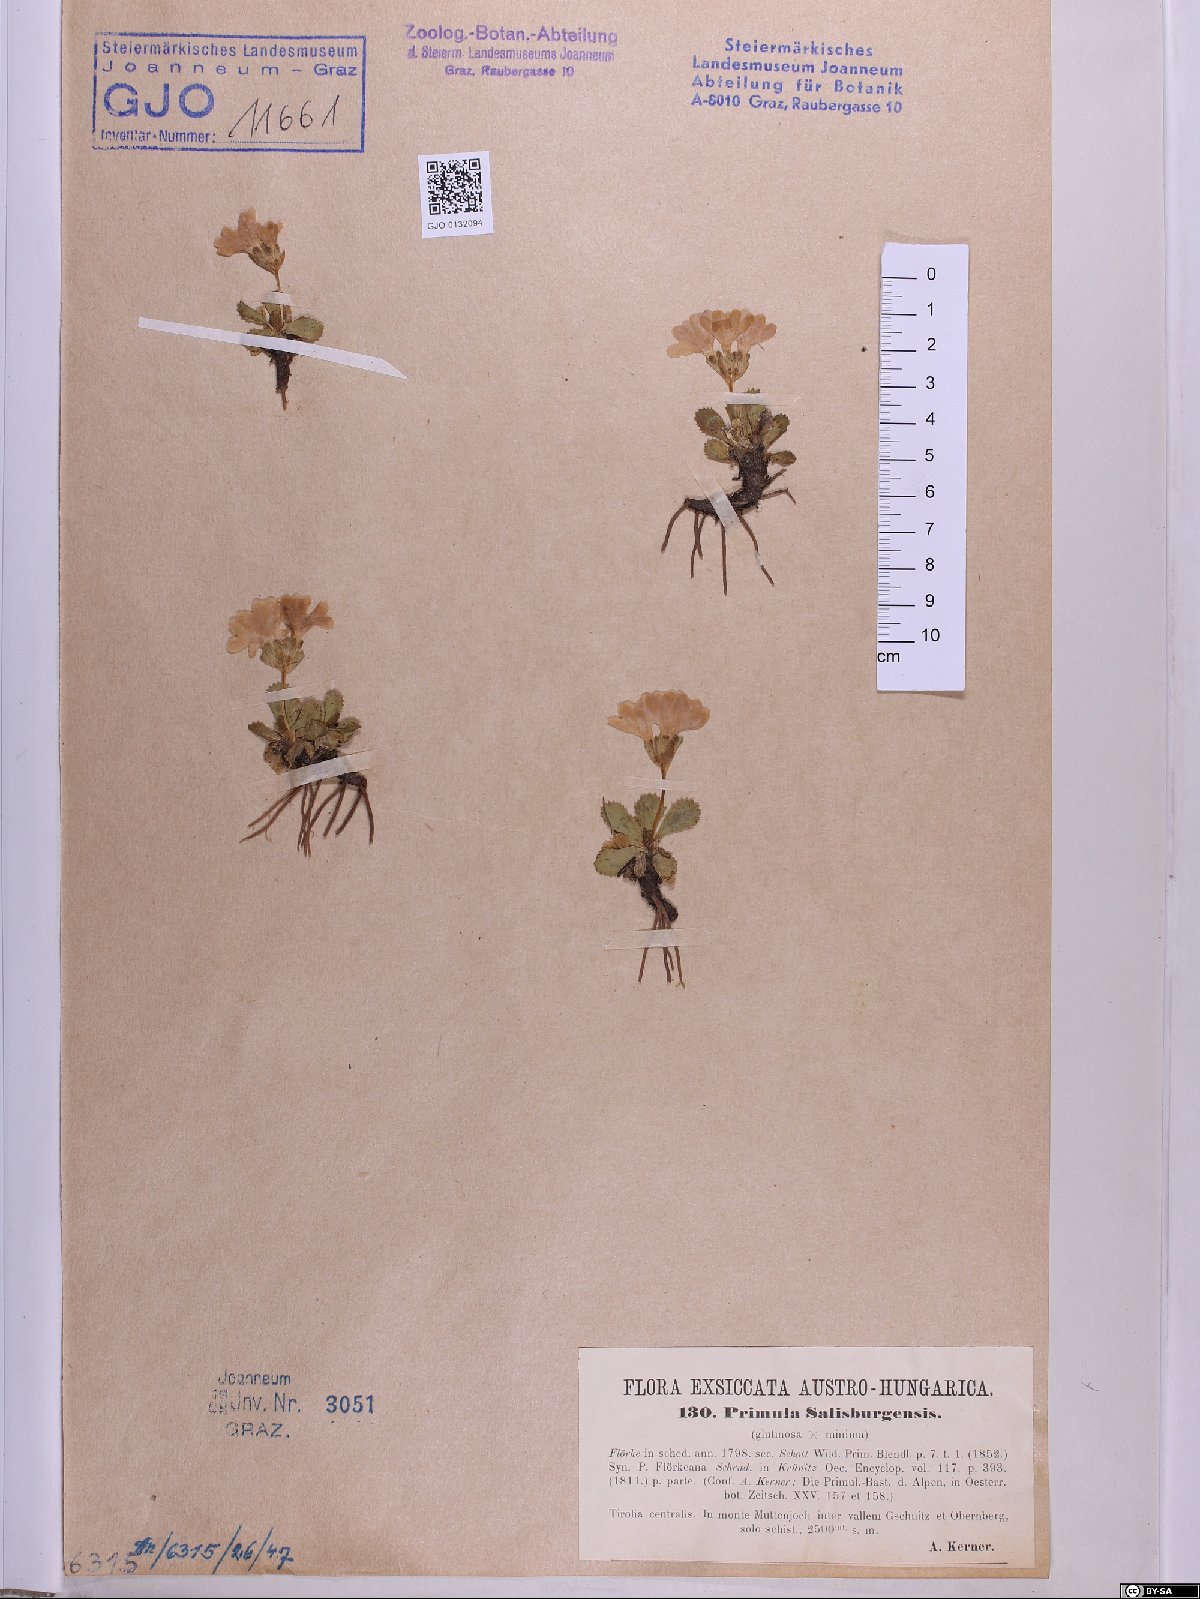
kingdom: Plantae
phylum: Tracheophyta
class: Magnoliopsida
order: Ericales
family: Primulaceae
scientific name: Primulaceae
